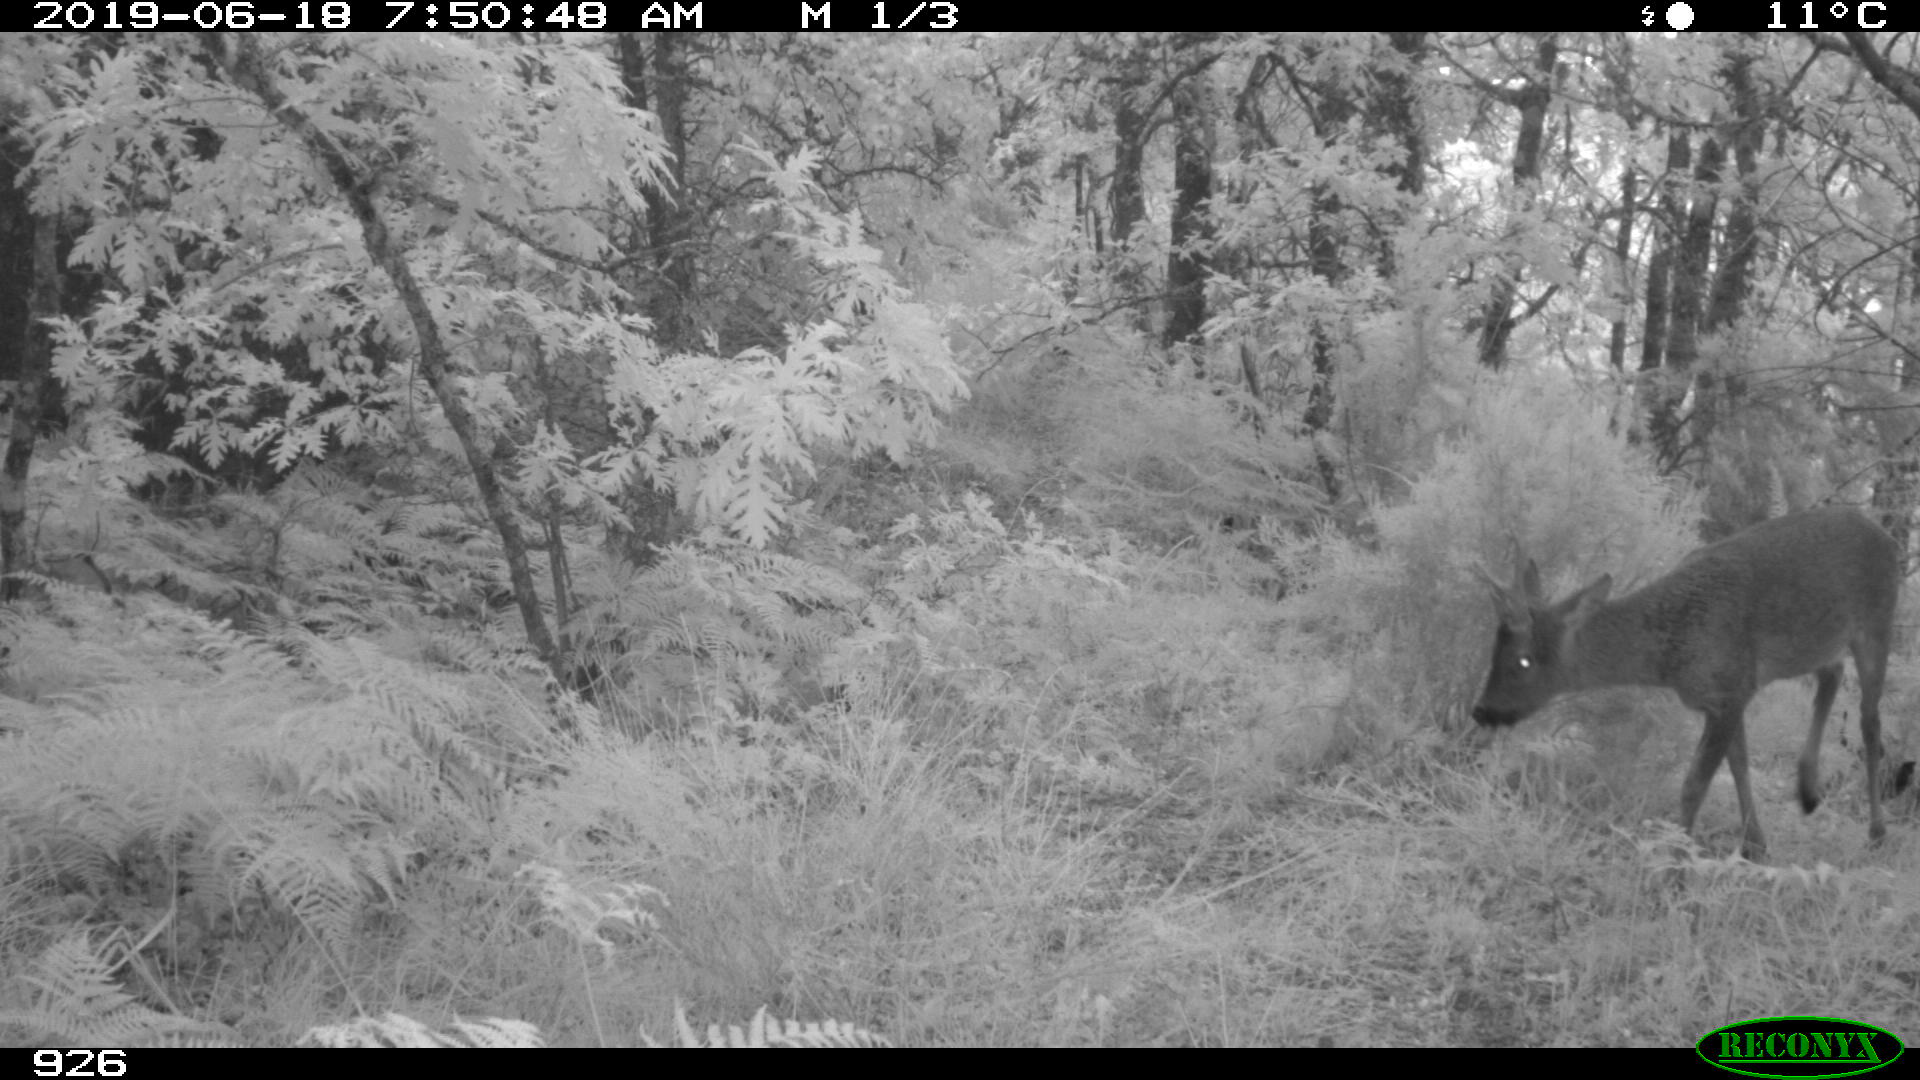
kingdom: Animalia
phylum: Chordata
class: Mammalia
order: Artiodactyla
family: Cervidae
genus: Capreolus
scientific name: Capreolus capreolus
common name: Western roe deer
